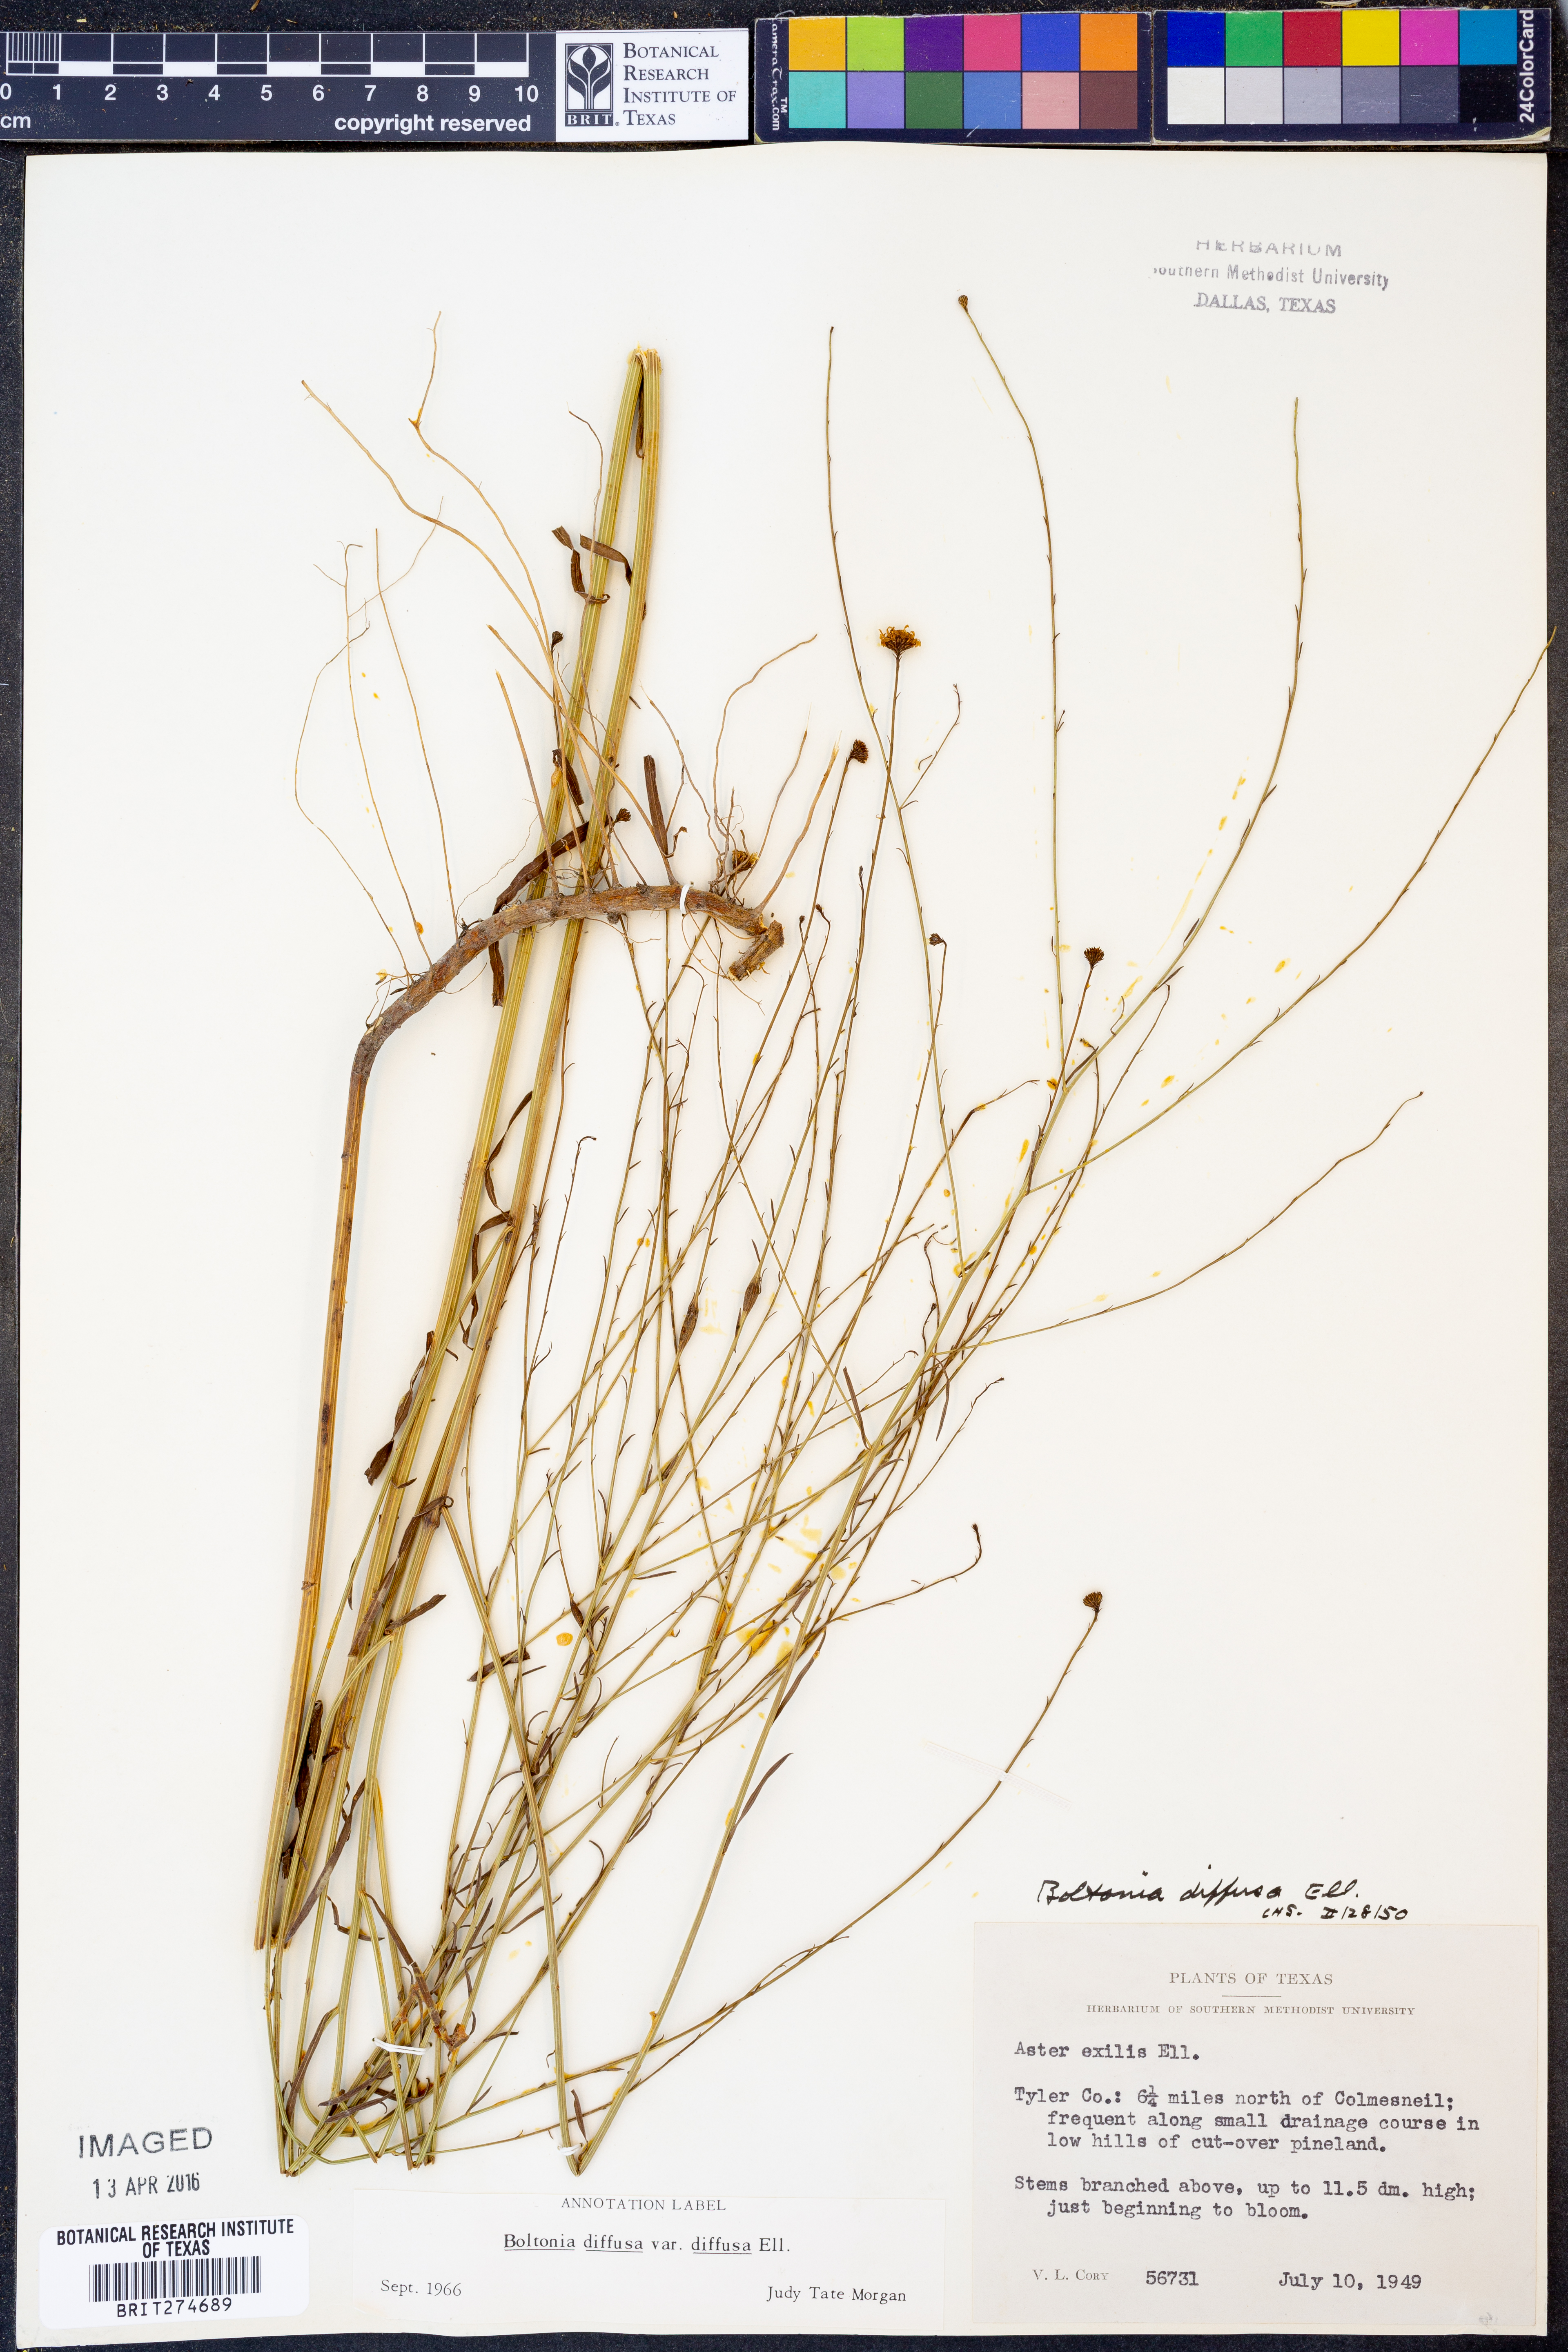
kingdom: Plantae
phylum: Tracheophyta
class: Magnoliopsida
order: Asterales
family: Asteraceae
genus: Boltonia
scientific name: Boltonia diffusa
